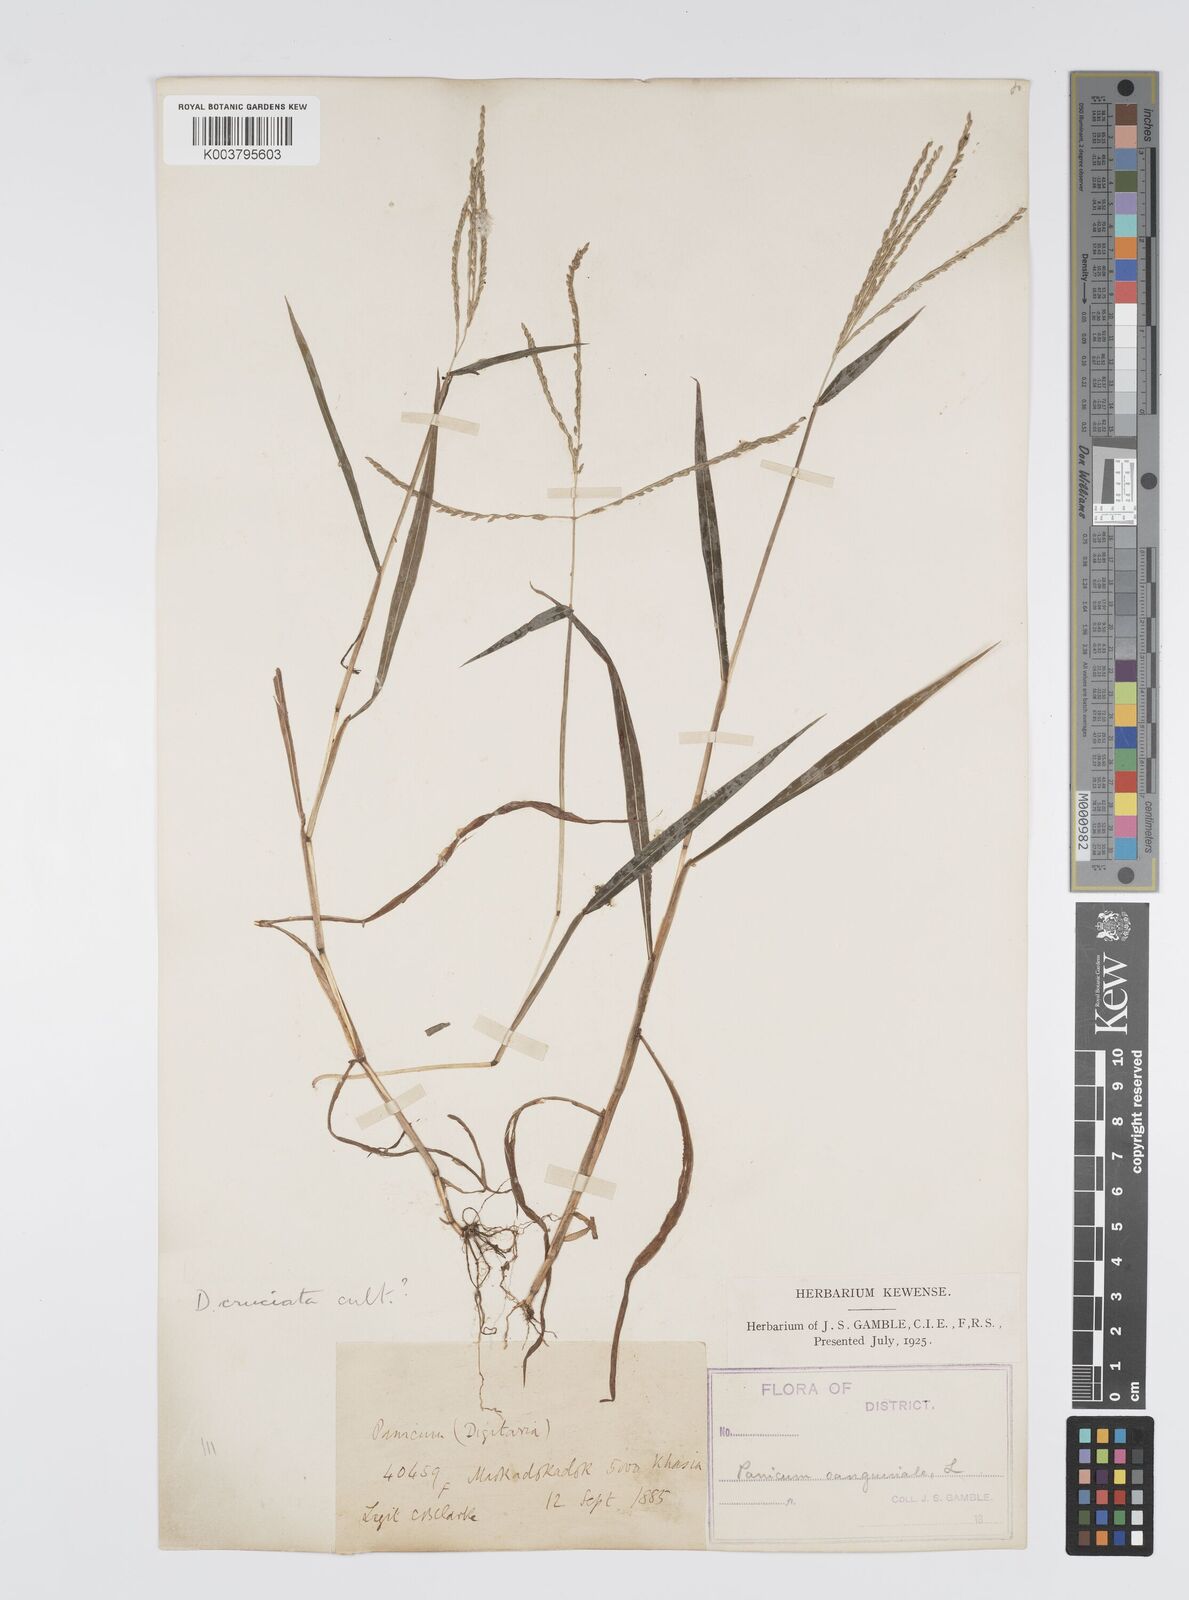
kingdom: Plantae
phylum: Tracheophyta
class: Liliopsida
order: Poales
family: Poaceae
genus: Digitaria
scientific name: Digitaria sanguinalis
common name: Hairy crabgrass
